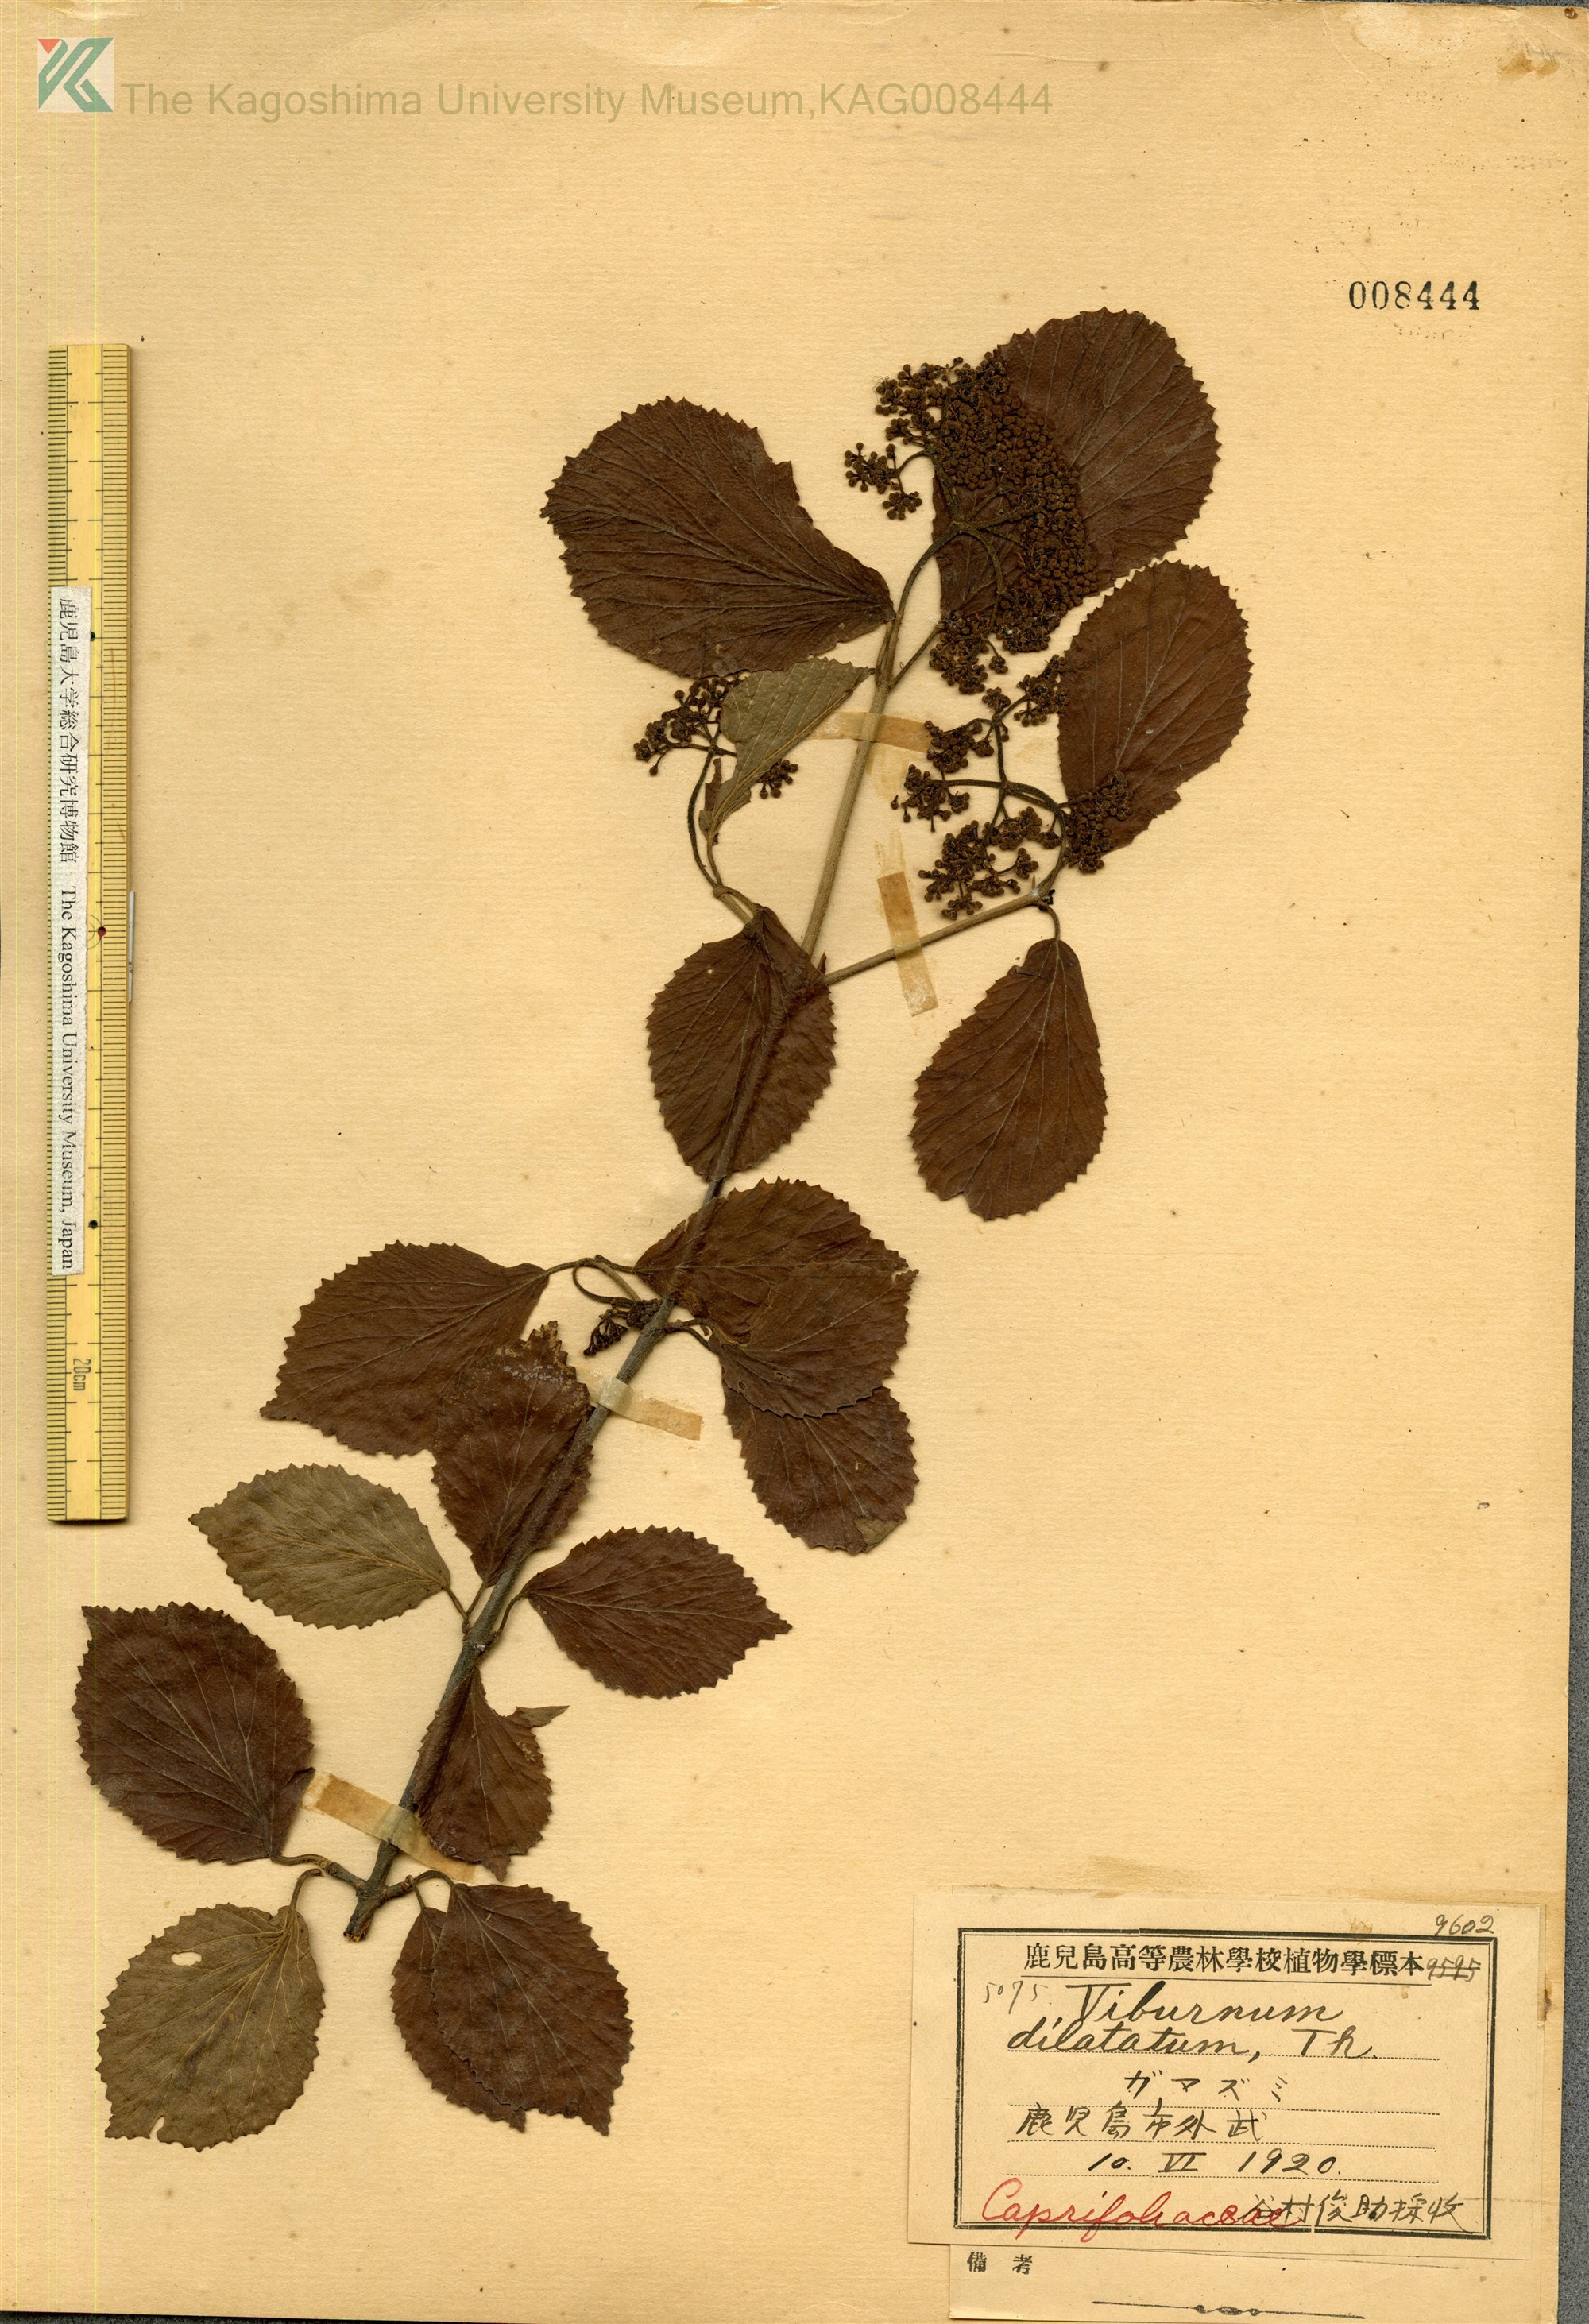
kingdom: Plantae
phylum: Tracheophyta
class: Magnoliopsida
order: Dipsacales
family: Viburnaceae
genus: Viburnum
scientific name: Viburnum dilatatum
